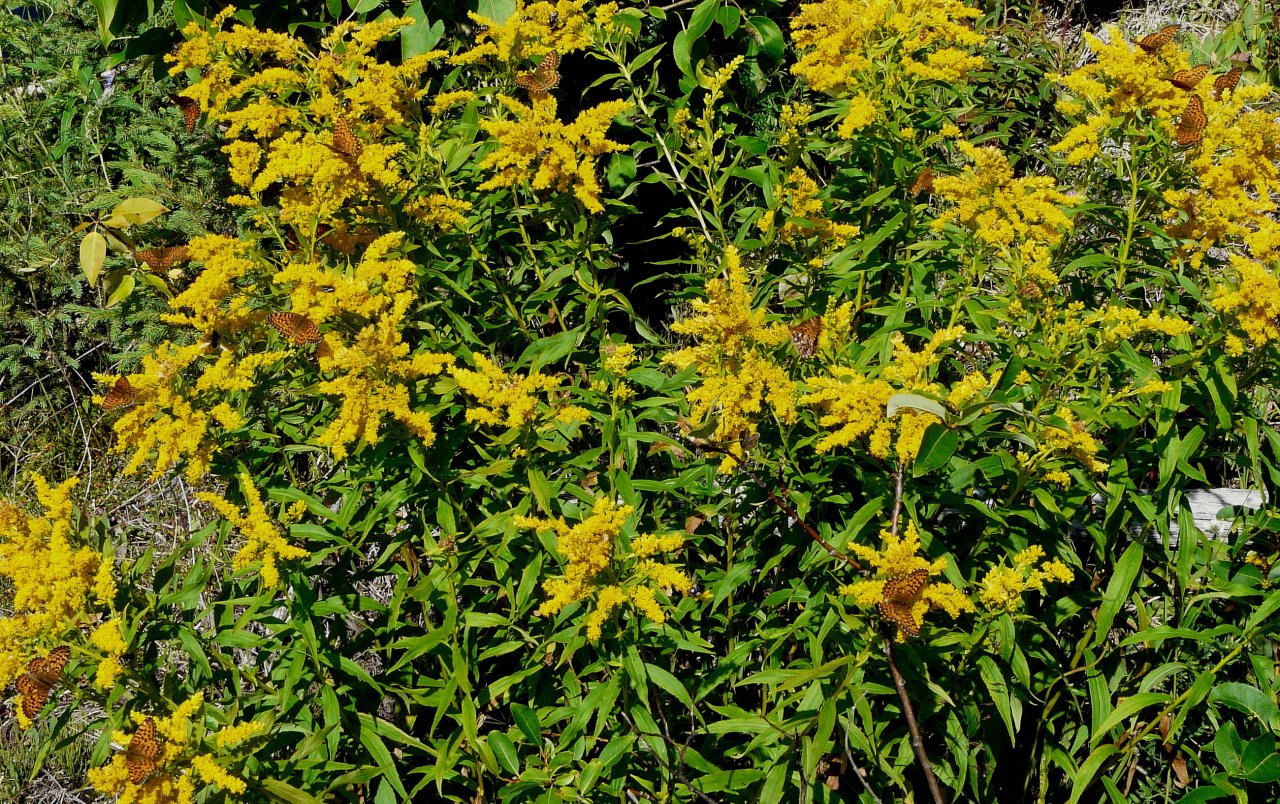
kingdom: Animalia
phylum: Arthropoda
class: Insecta
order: Lepidoptera
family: Nymphalidae
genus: Boloria
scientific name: Boloria chariclea
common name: Arctic Fritillary
